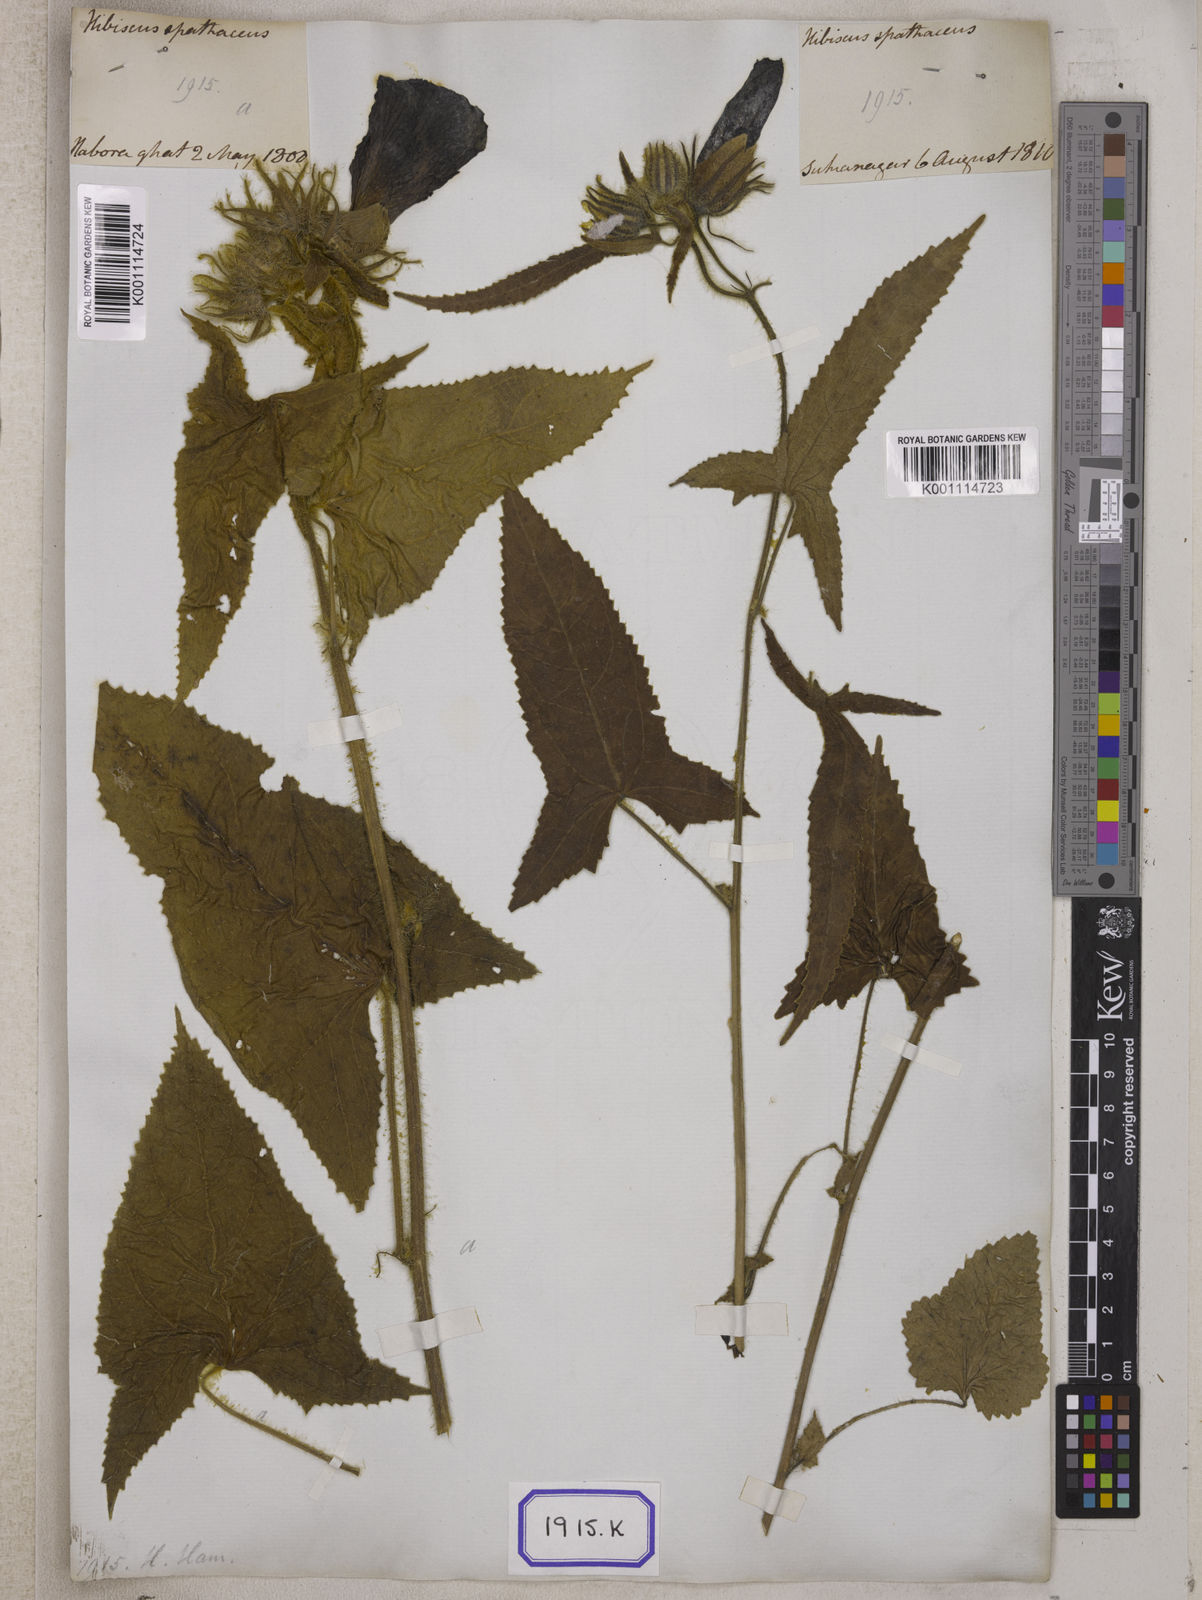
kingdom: Plantae
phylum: Tracheophyta
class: Magnoliopsida
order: Malvales
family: Malvaceae
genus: Bamia
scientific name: Bamia
